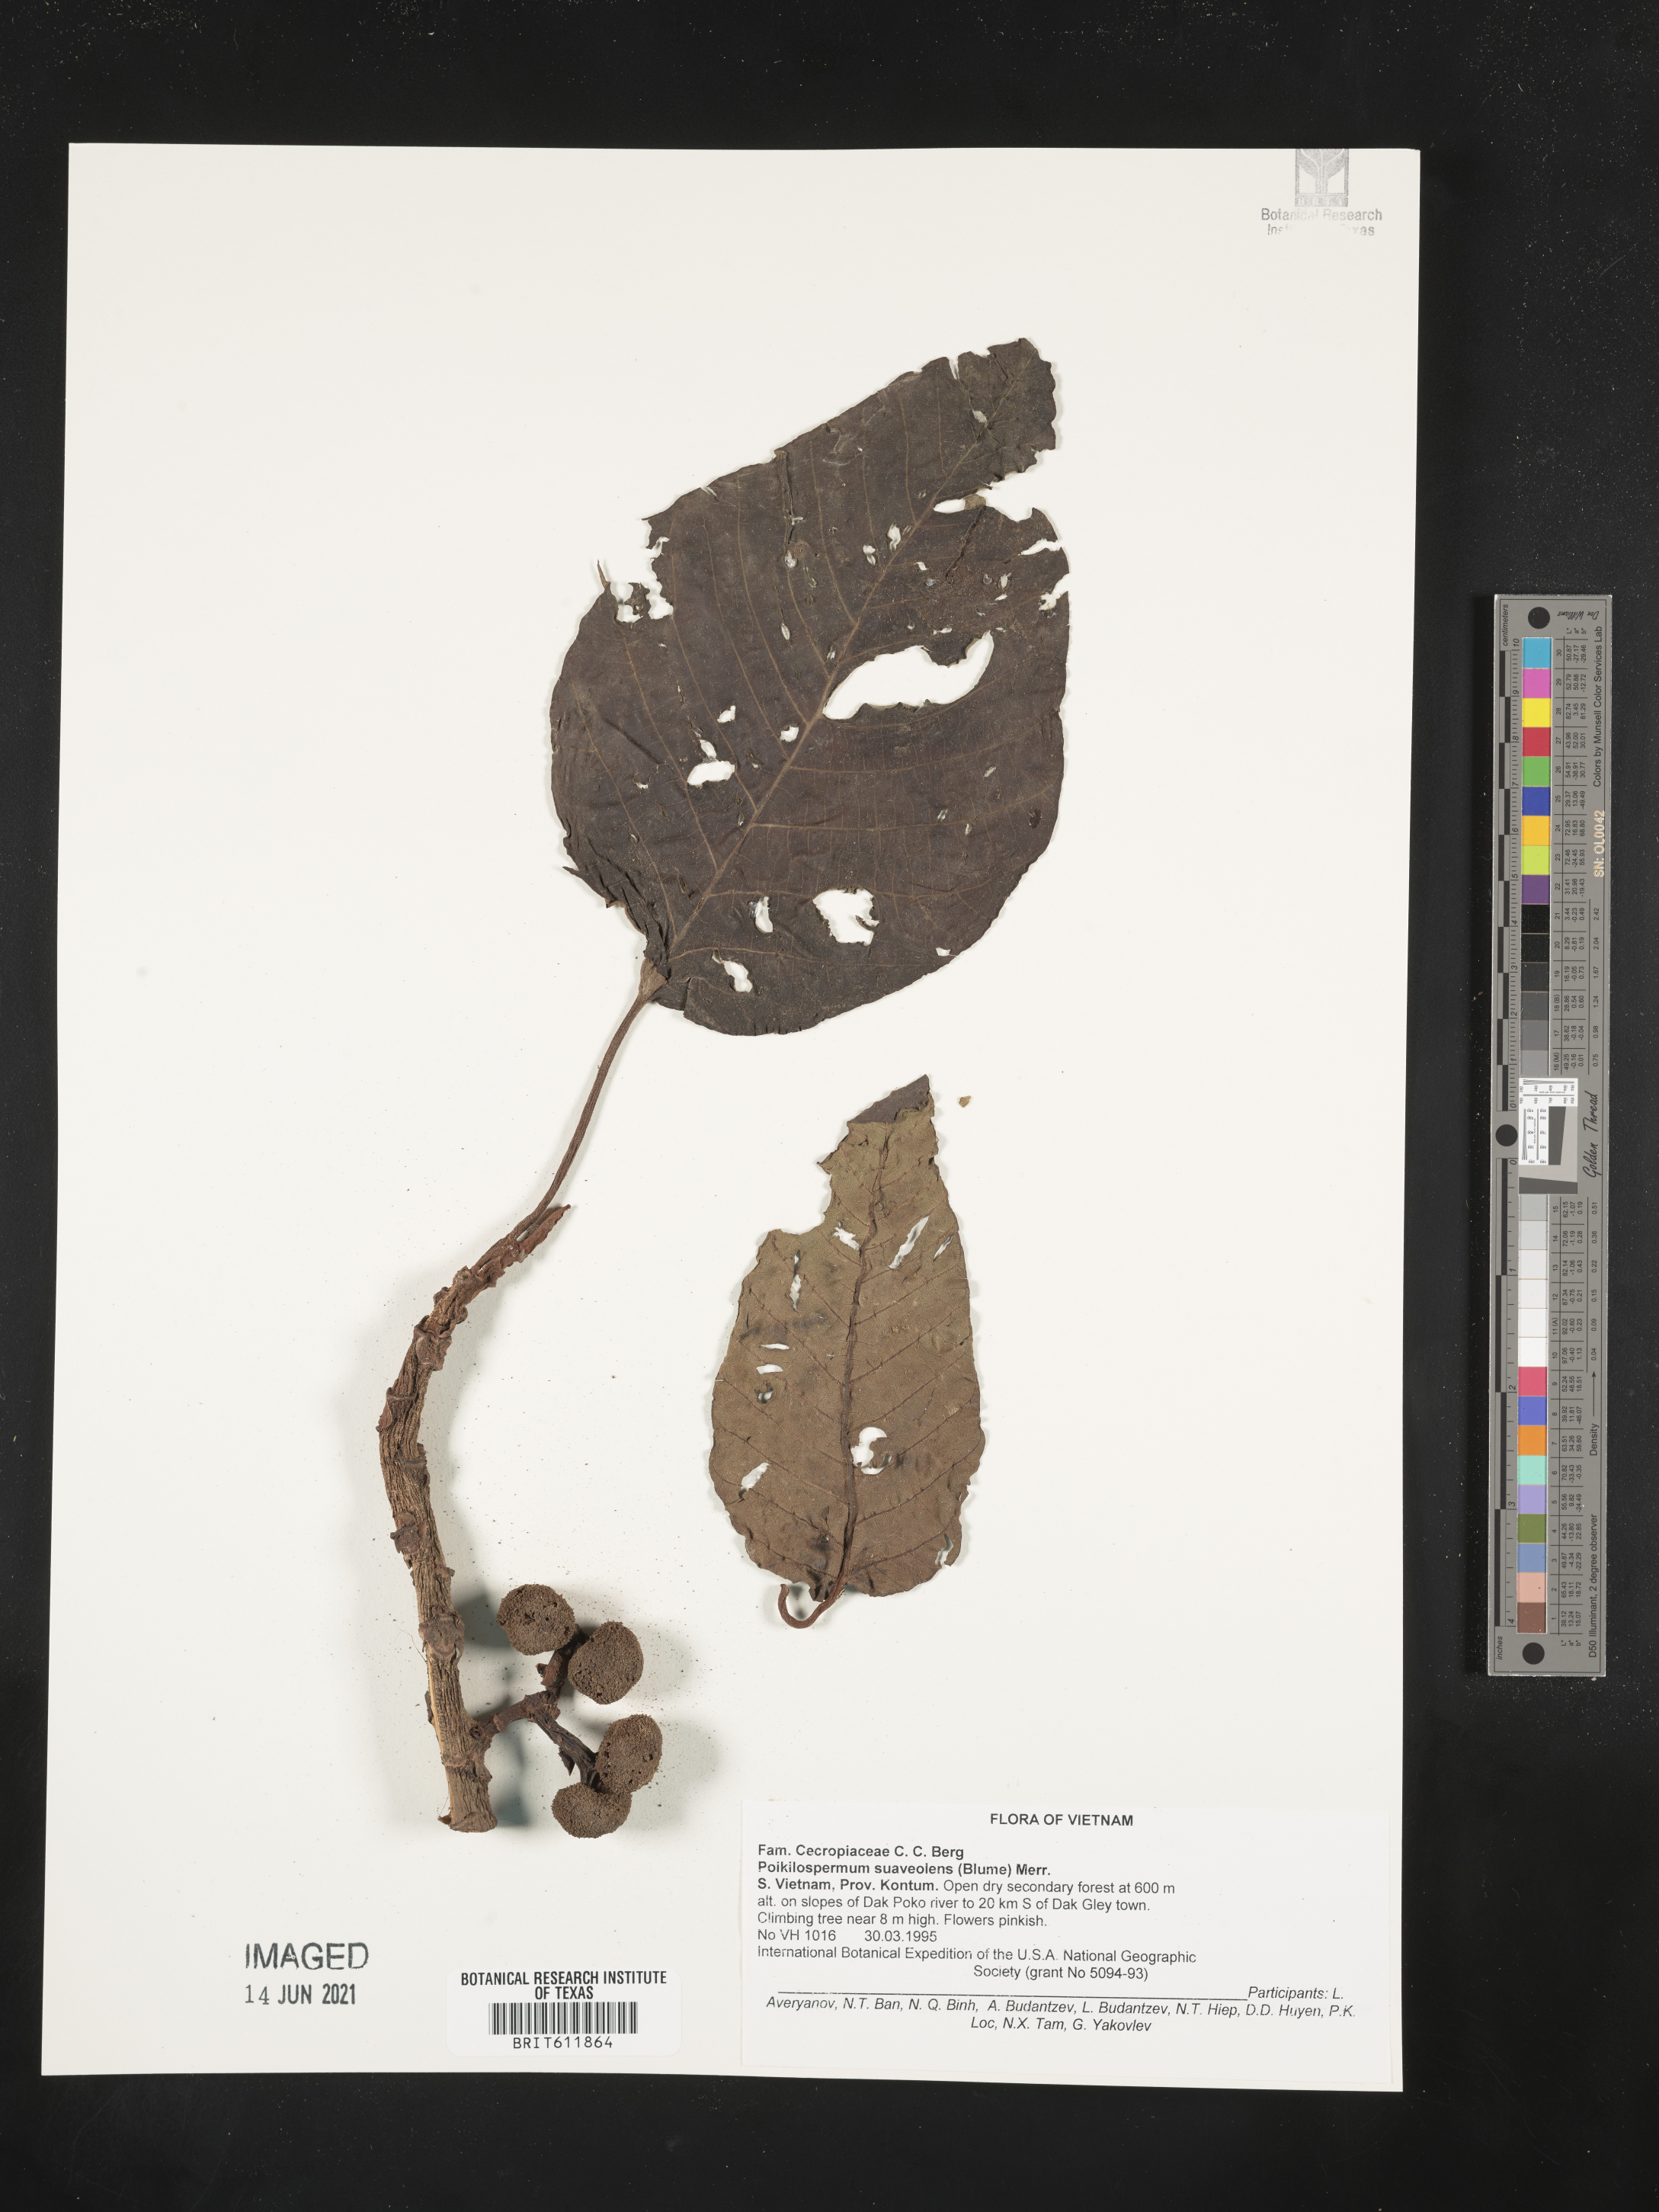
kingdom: Plantae
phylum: Tracheophyta
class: Magnoliopsida
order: Rosales
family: Urticaceae
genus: Poikilospermum
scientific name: Poikilospermum suaveolens
